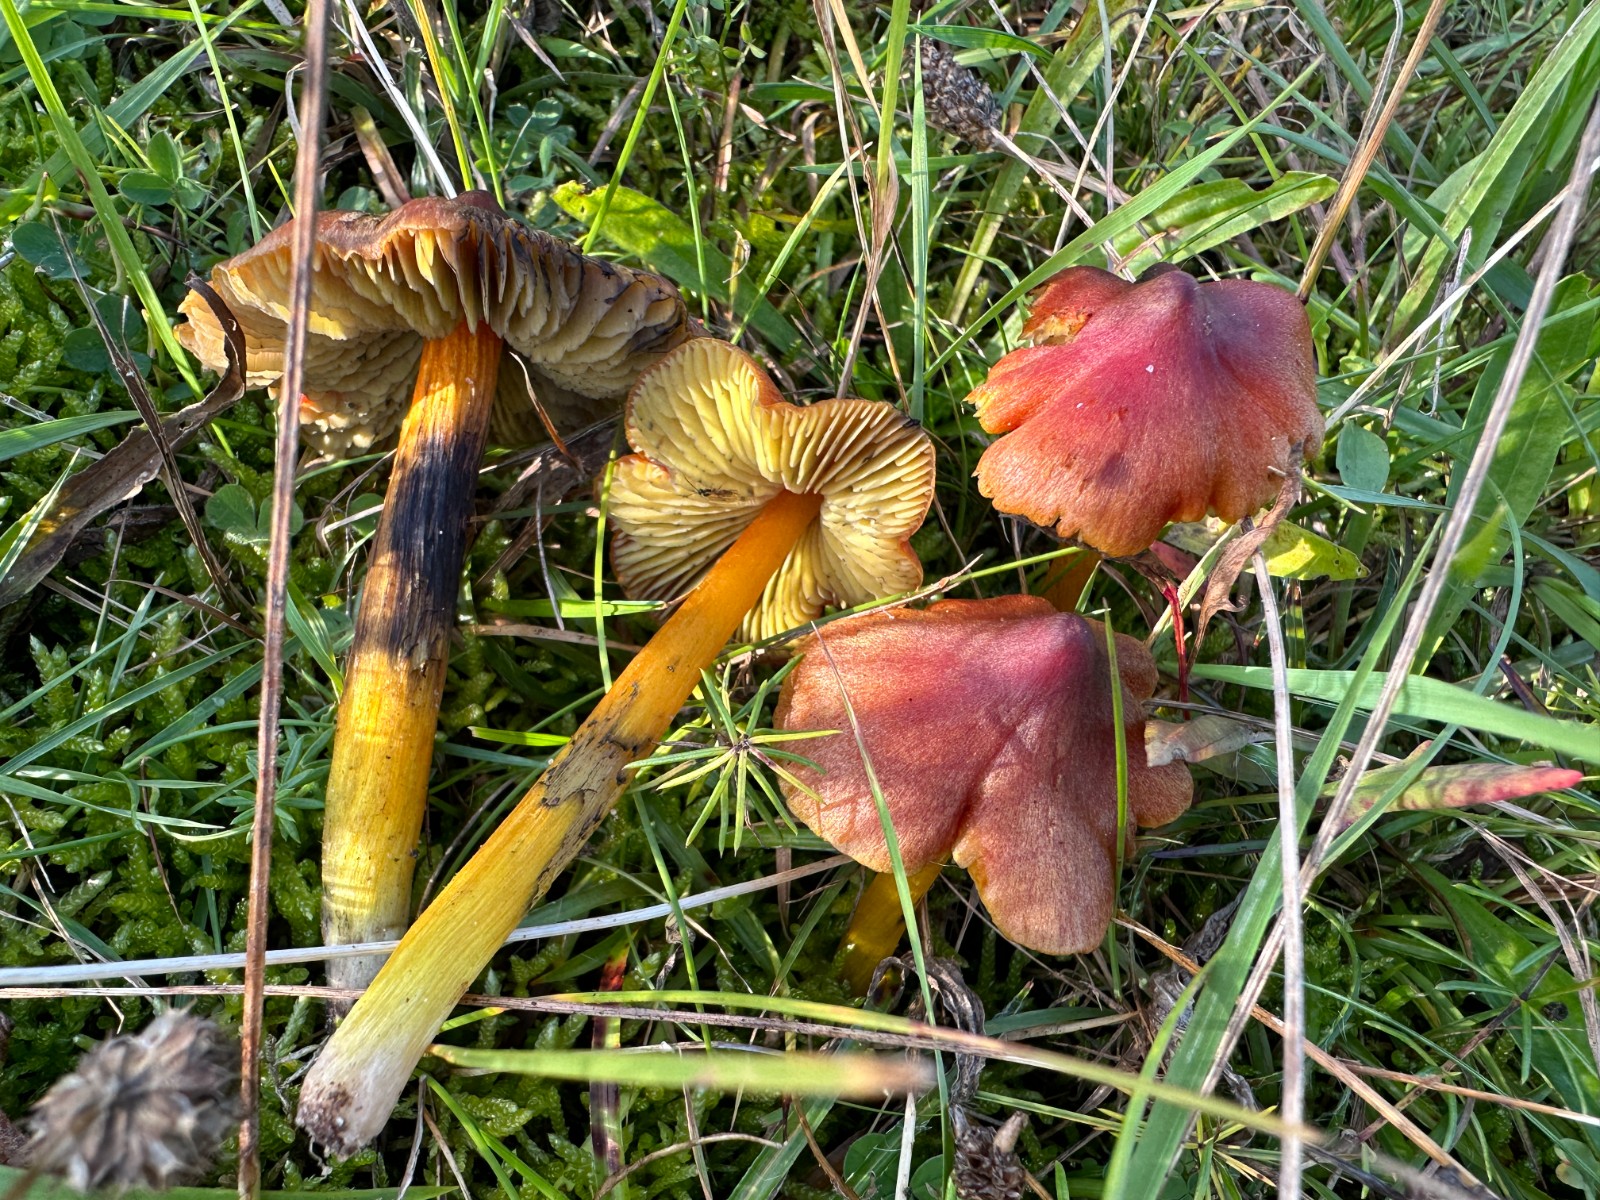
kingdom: Fungi
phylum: Basidiomycota
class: Agaricomycetes
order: Agaricales
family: Hygrophoraceae
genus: Hygrocybe
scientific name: Hygrocybe conica
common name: kegle-vokshat
